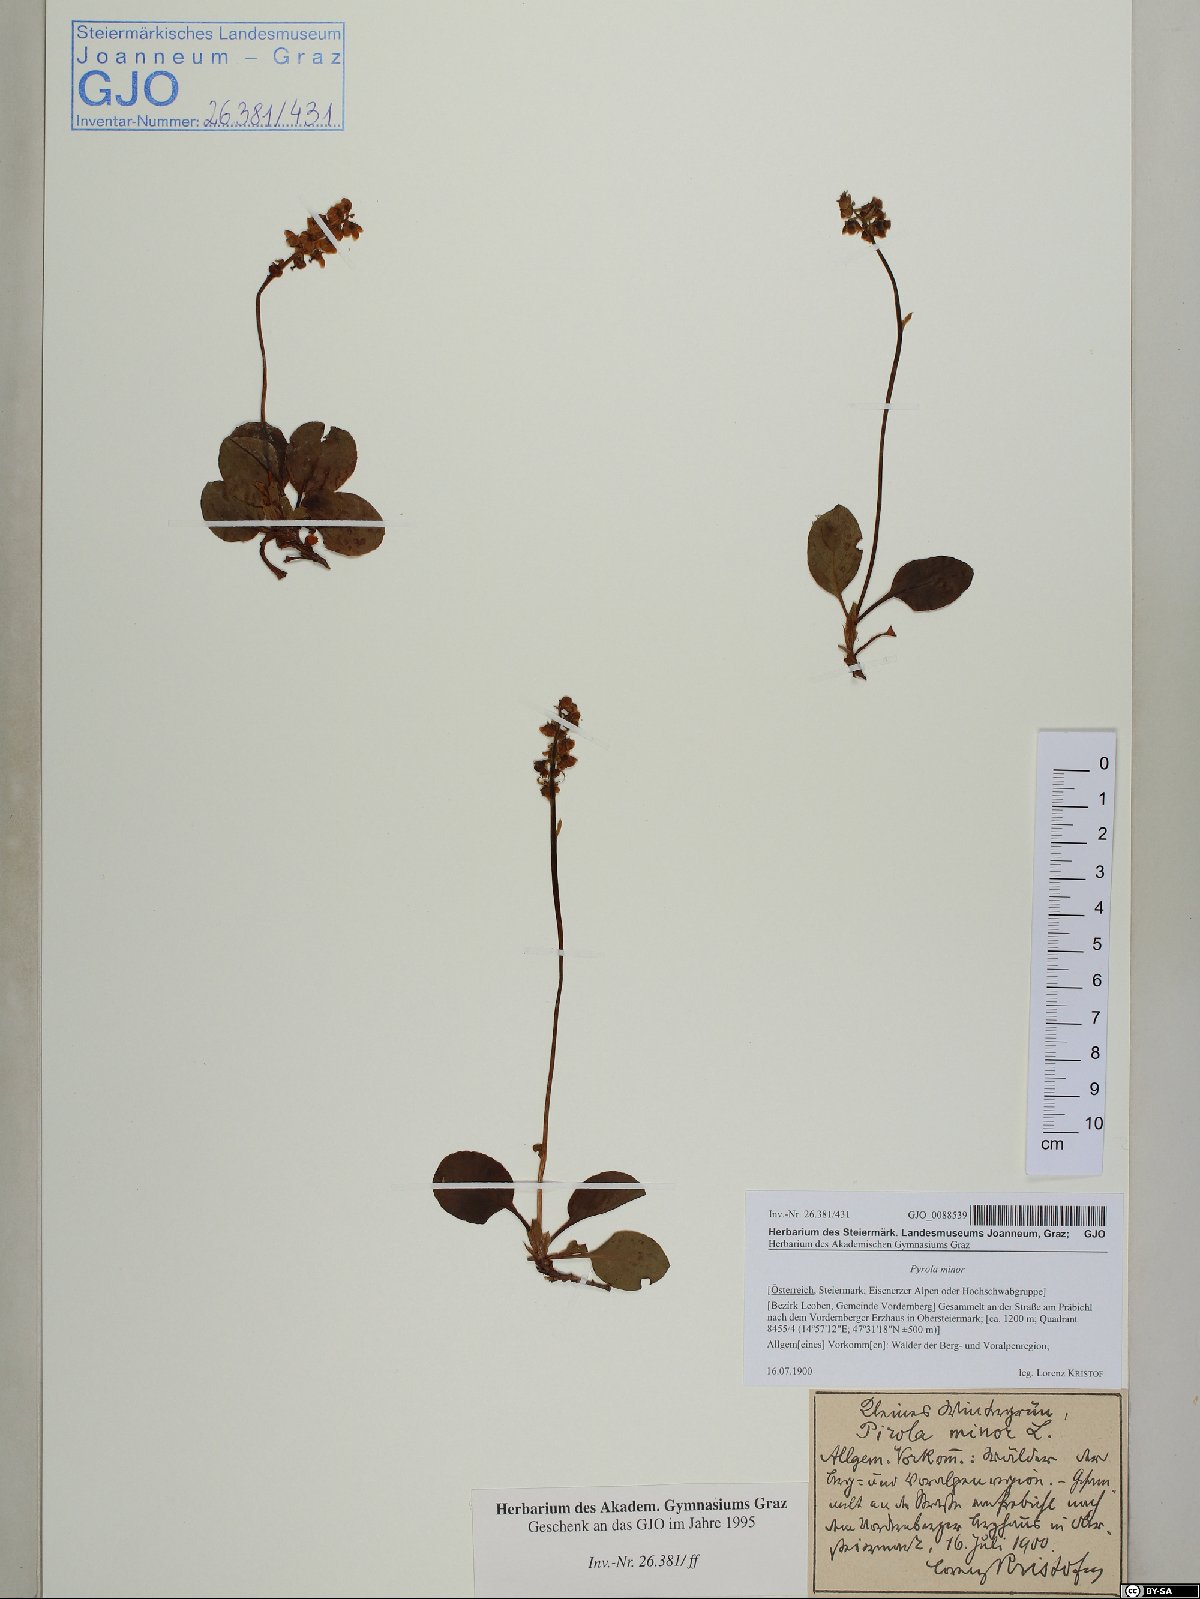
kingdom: Plantae
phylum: Tracheophyta
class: Magnoliopsida
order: Ericales
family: Ericaceae
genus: Pyrola
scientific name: Pyrola minor
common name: Common wintergreen
